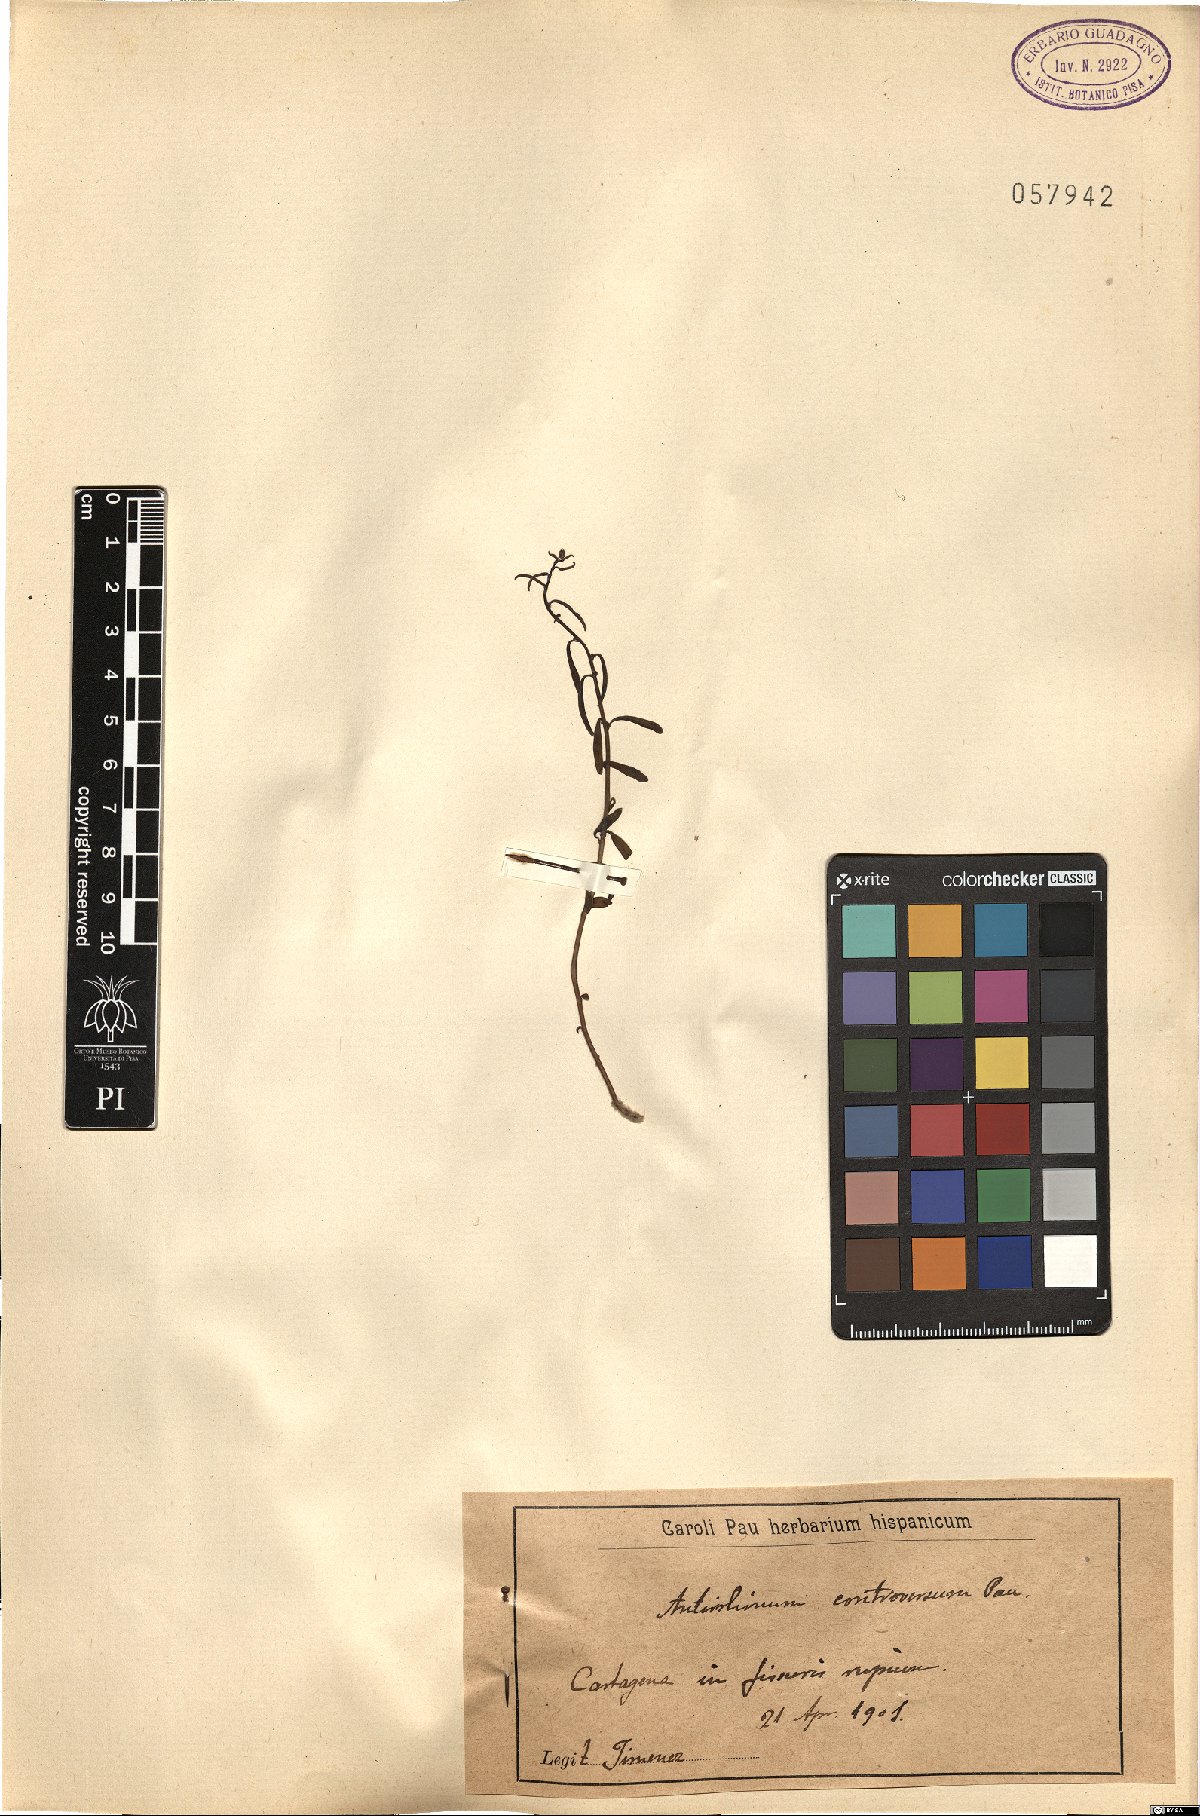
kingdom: Plantae
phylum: Tracheophyta
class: Magnoliopsida
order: Lamiales
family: Plantaginaceae
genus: Antirrhinum
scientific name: Antirrhinum controversum
